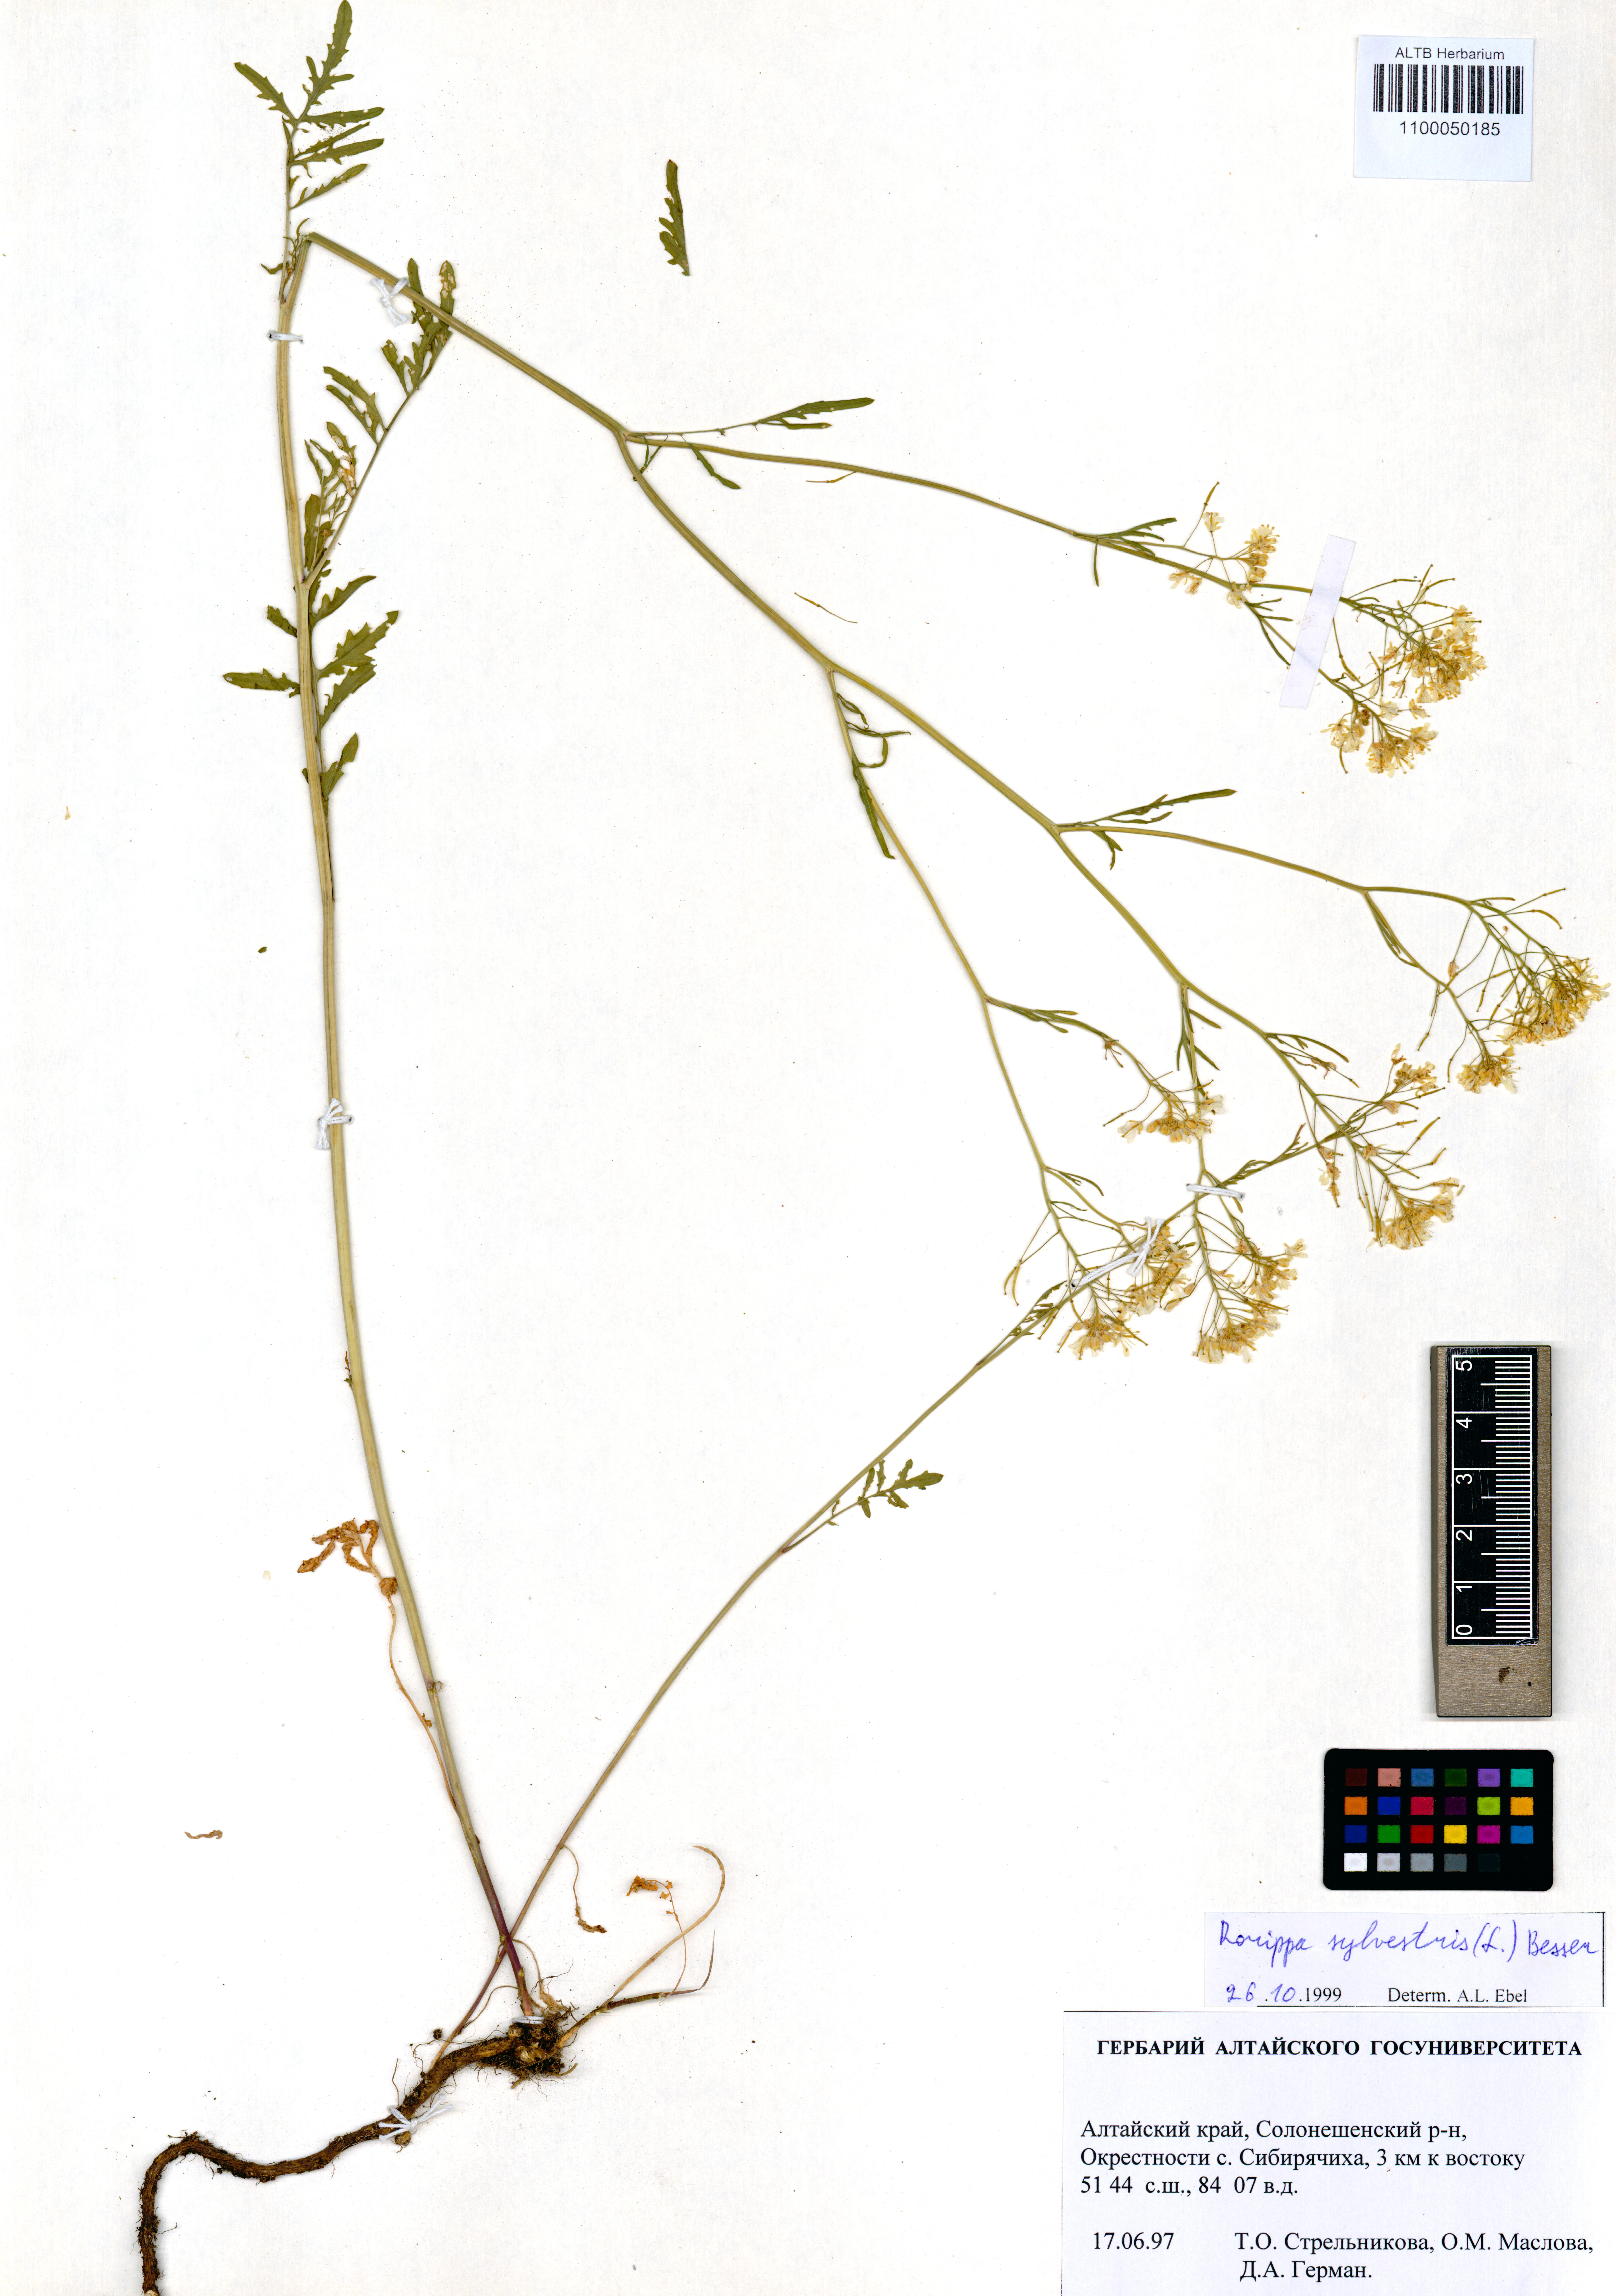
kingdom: Plantae
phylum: Tracheophyta
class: Magnoliopsida
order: Brassicales
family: Brassicaceae
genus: Rorippa
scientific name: Rorippa sylvestris
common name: Creeping yellowcress
